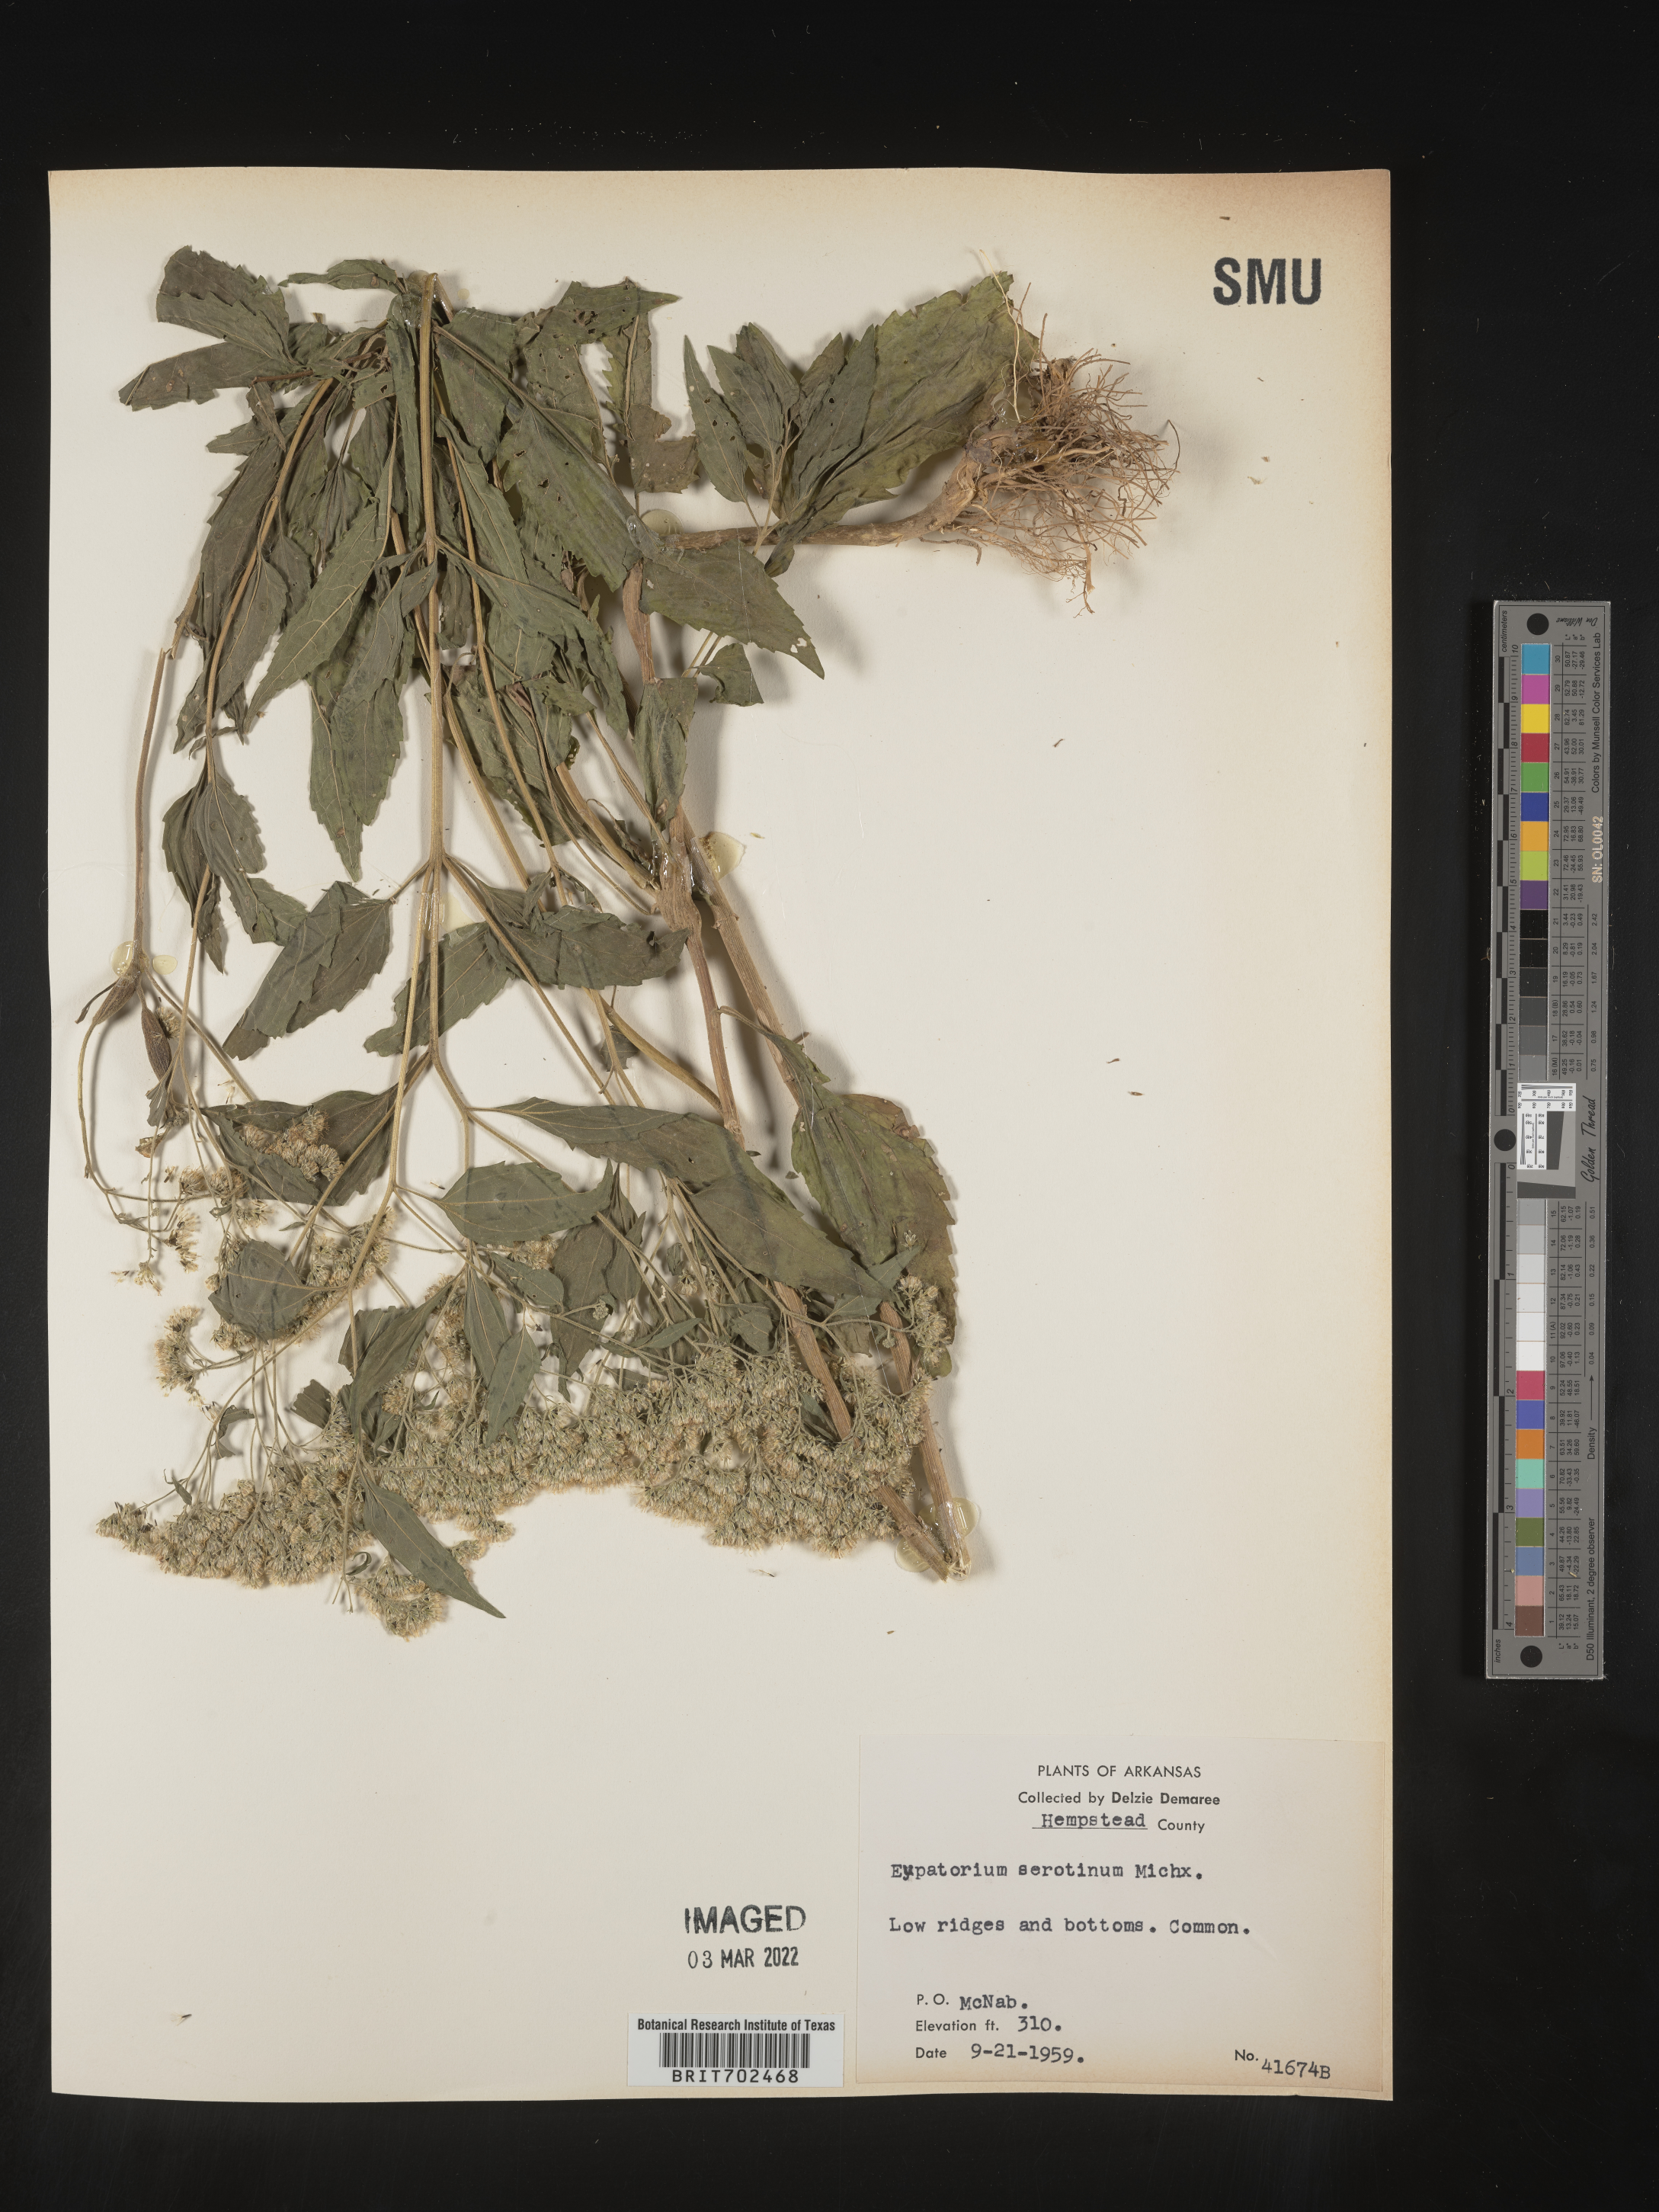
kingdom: Plantae
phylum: Tracheophyta
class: Magnoliopsida
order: Asterales
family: Asteraceae
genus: Eupatorium
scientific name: Eupatorium serotinum
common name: Late boneset
